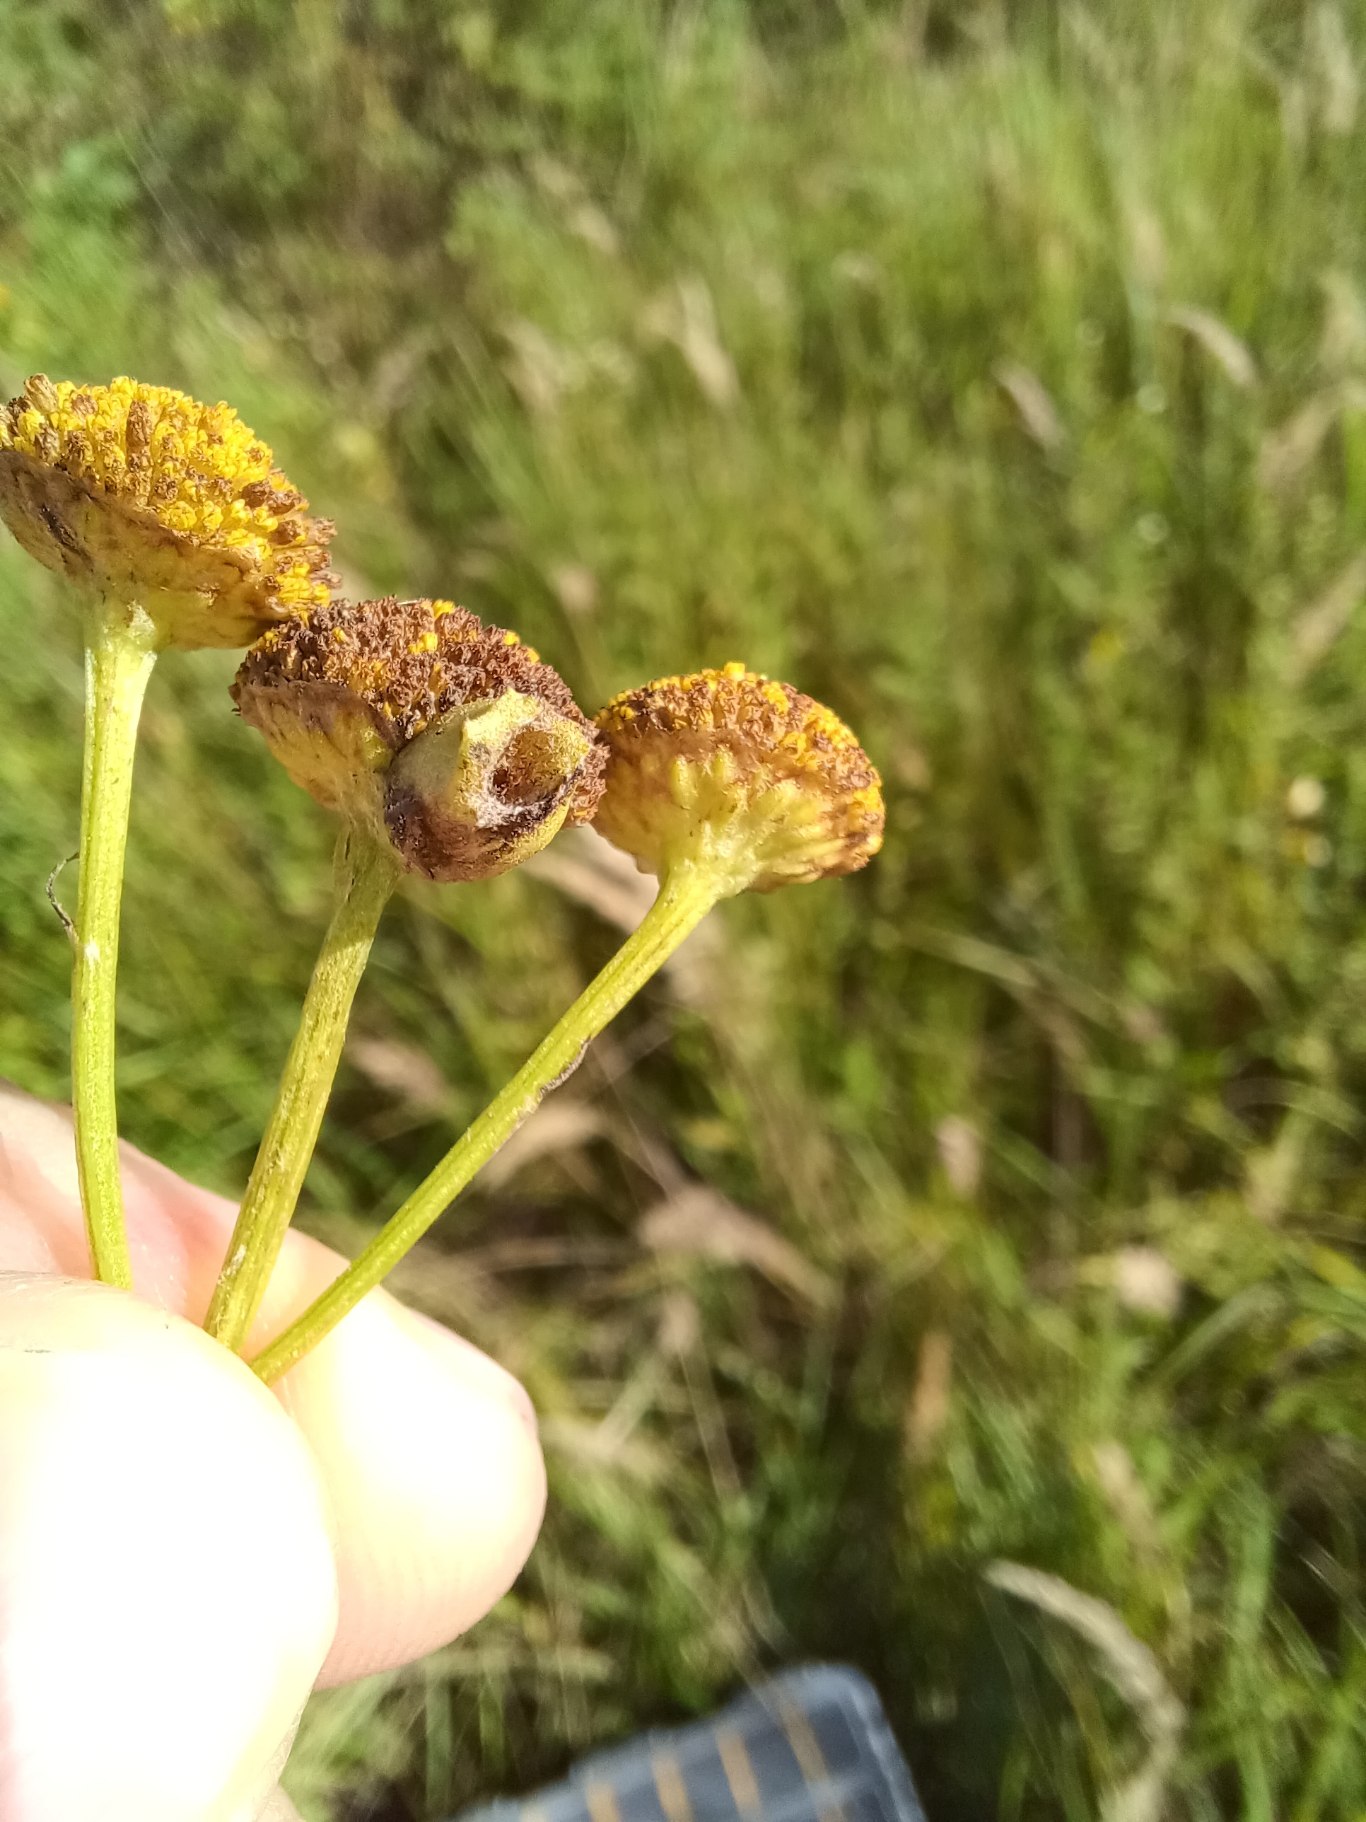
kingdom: Animalia
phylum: Arthropoda
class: Insecta
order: Diptera
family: Cecidomyiidae
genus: Rhopalomyia
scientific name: Rhopalomyia tanaceticolus
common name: Rejnfangalmyg
